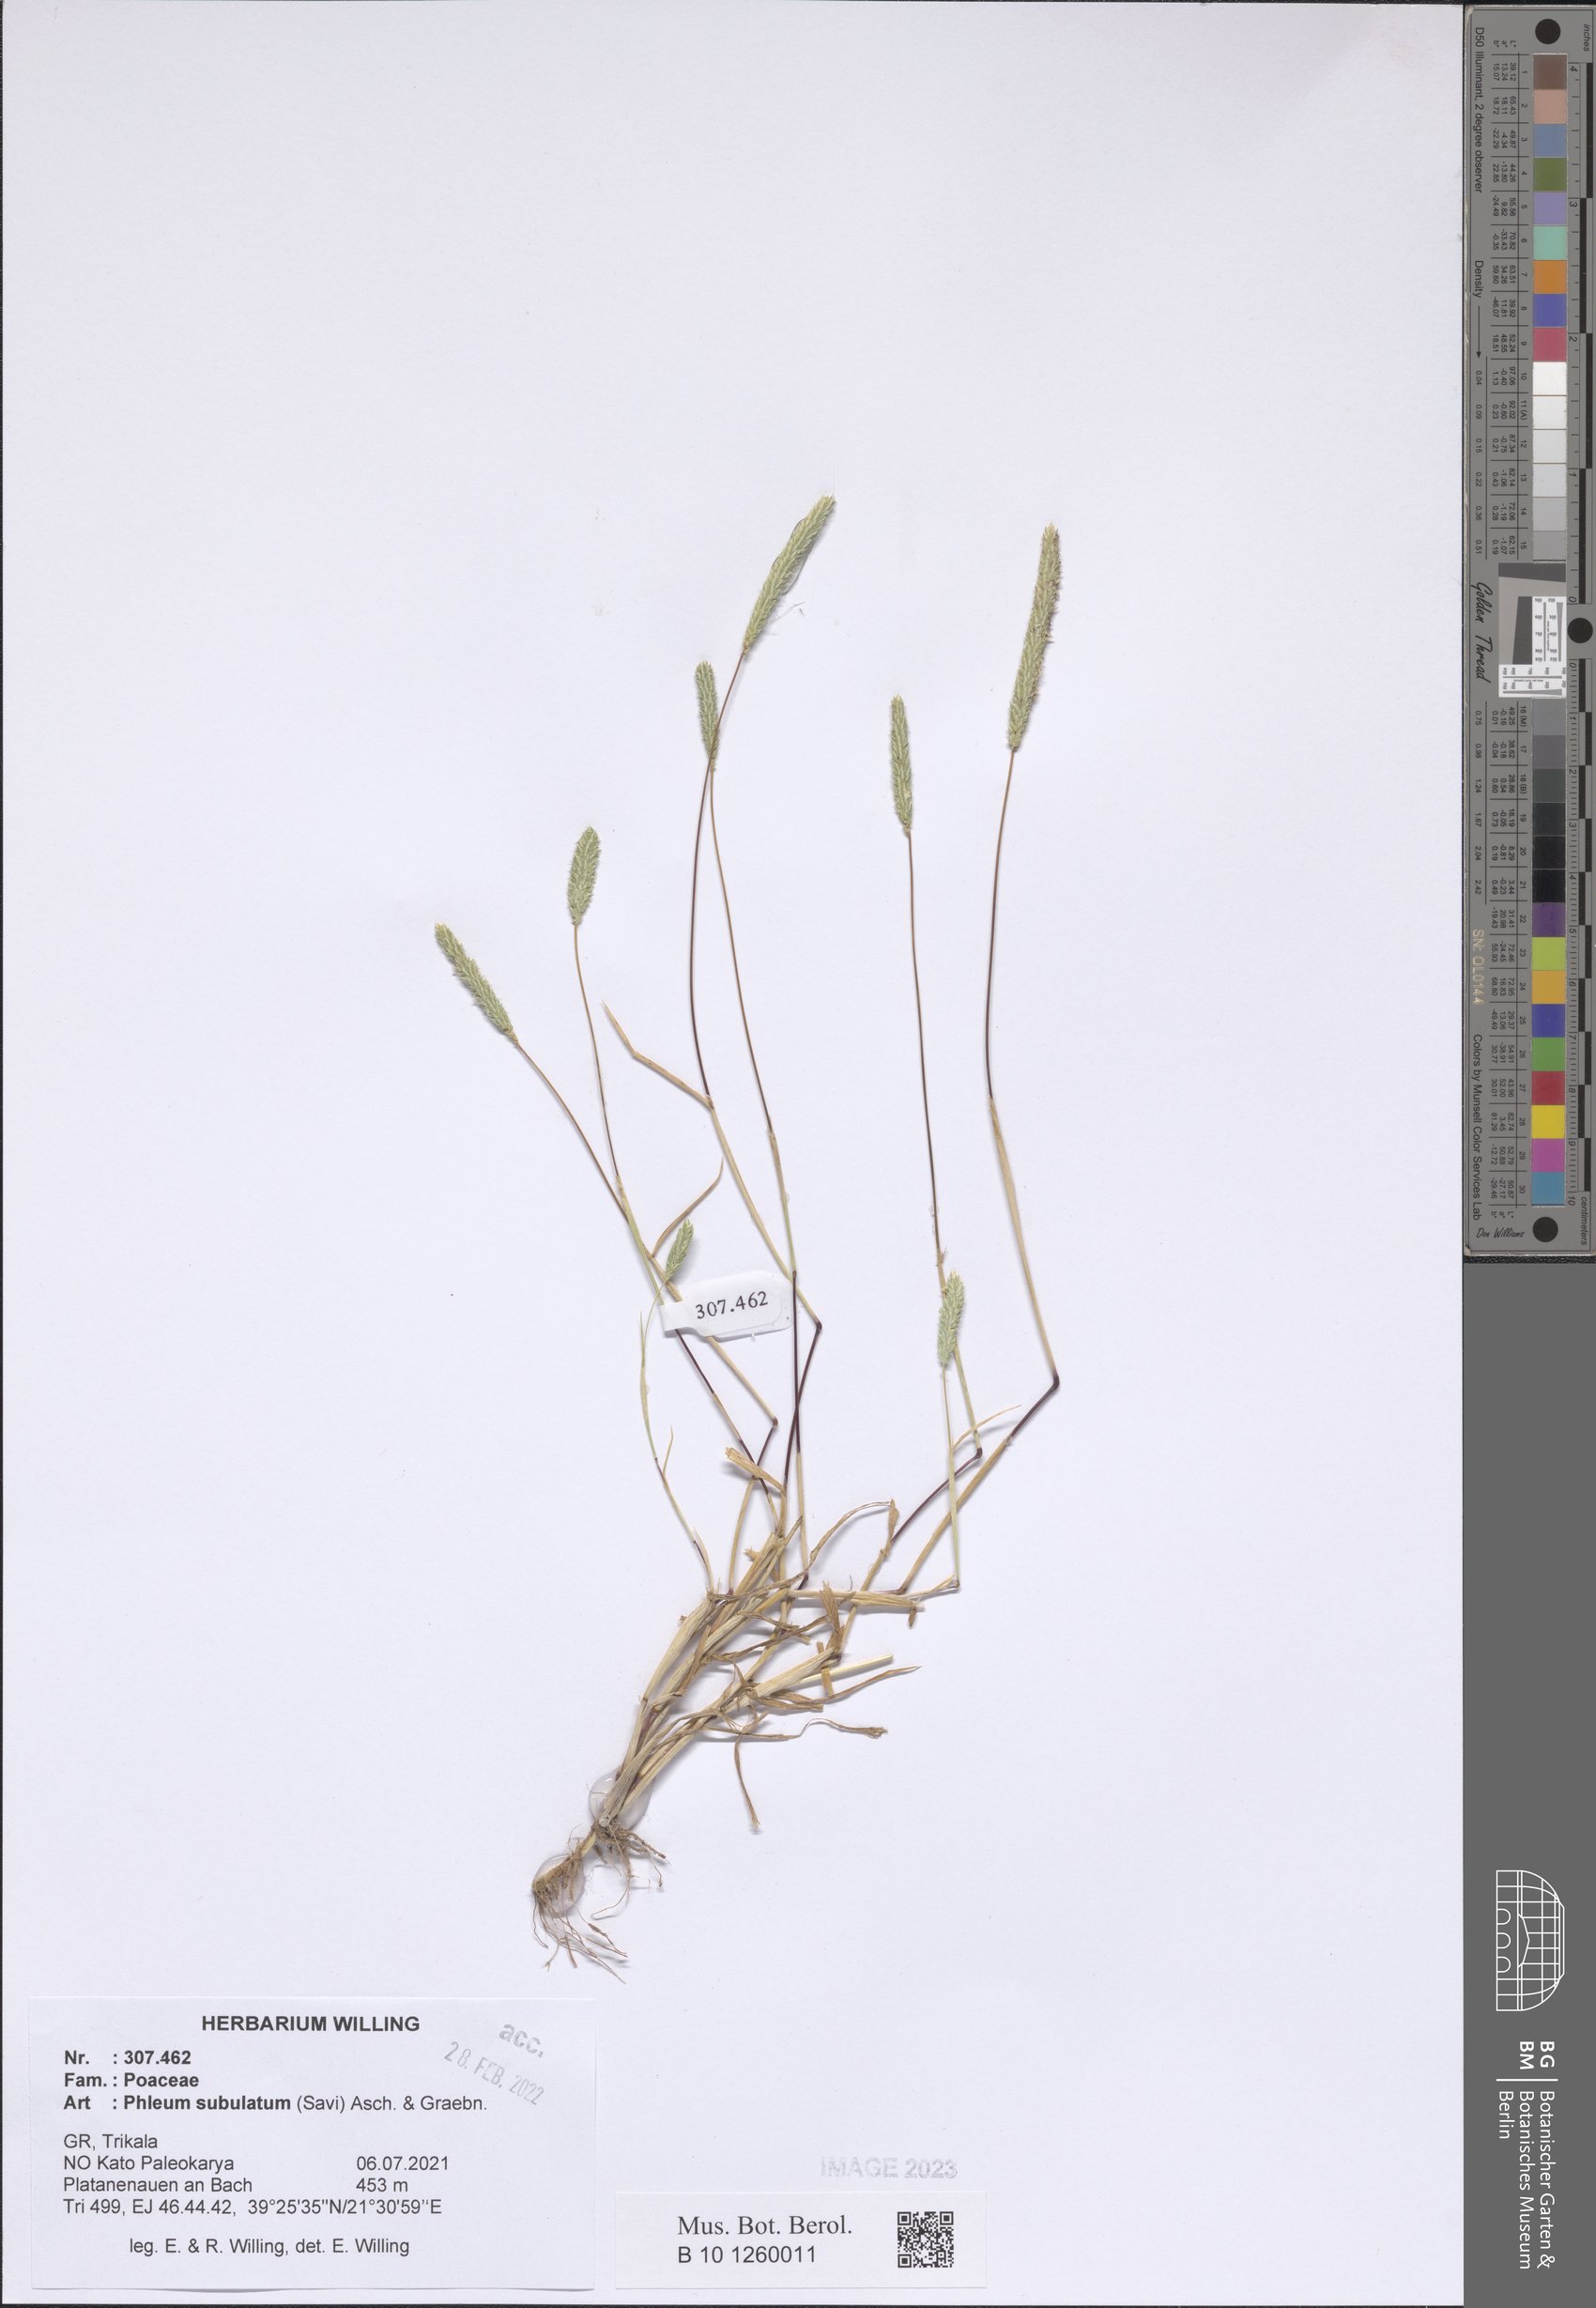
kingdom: Plantae
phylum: Tracheophyta
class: Liliopsida
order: Poales
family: Poaceae
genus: Phleum
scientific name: Phleum subulatum
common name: Italian timothy
